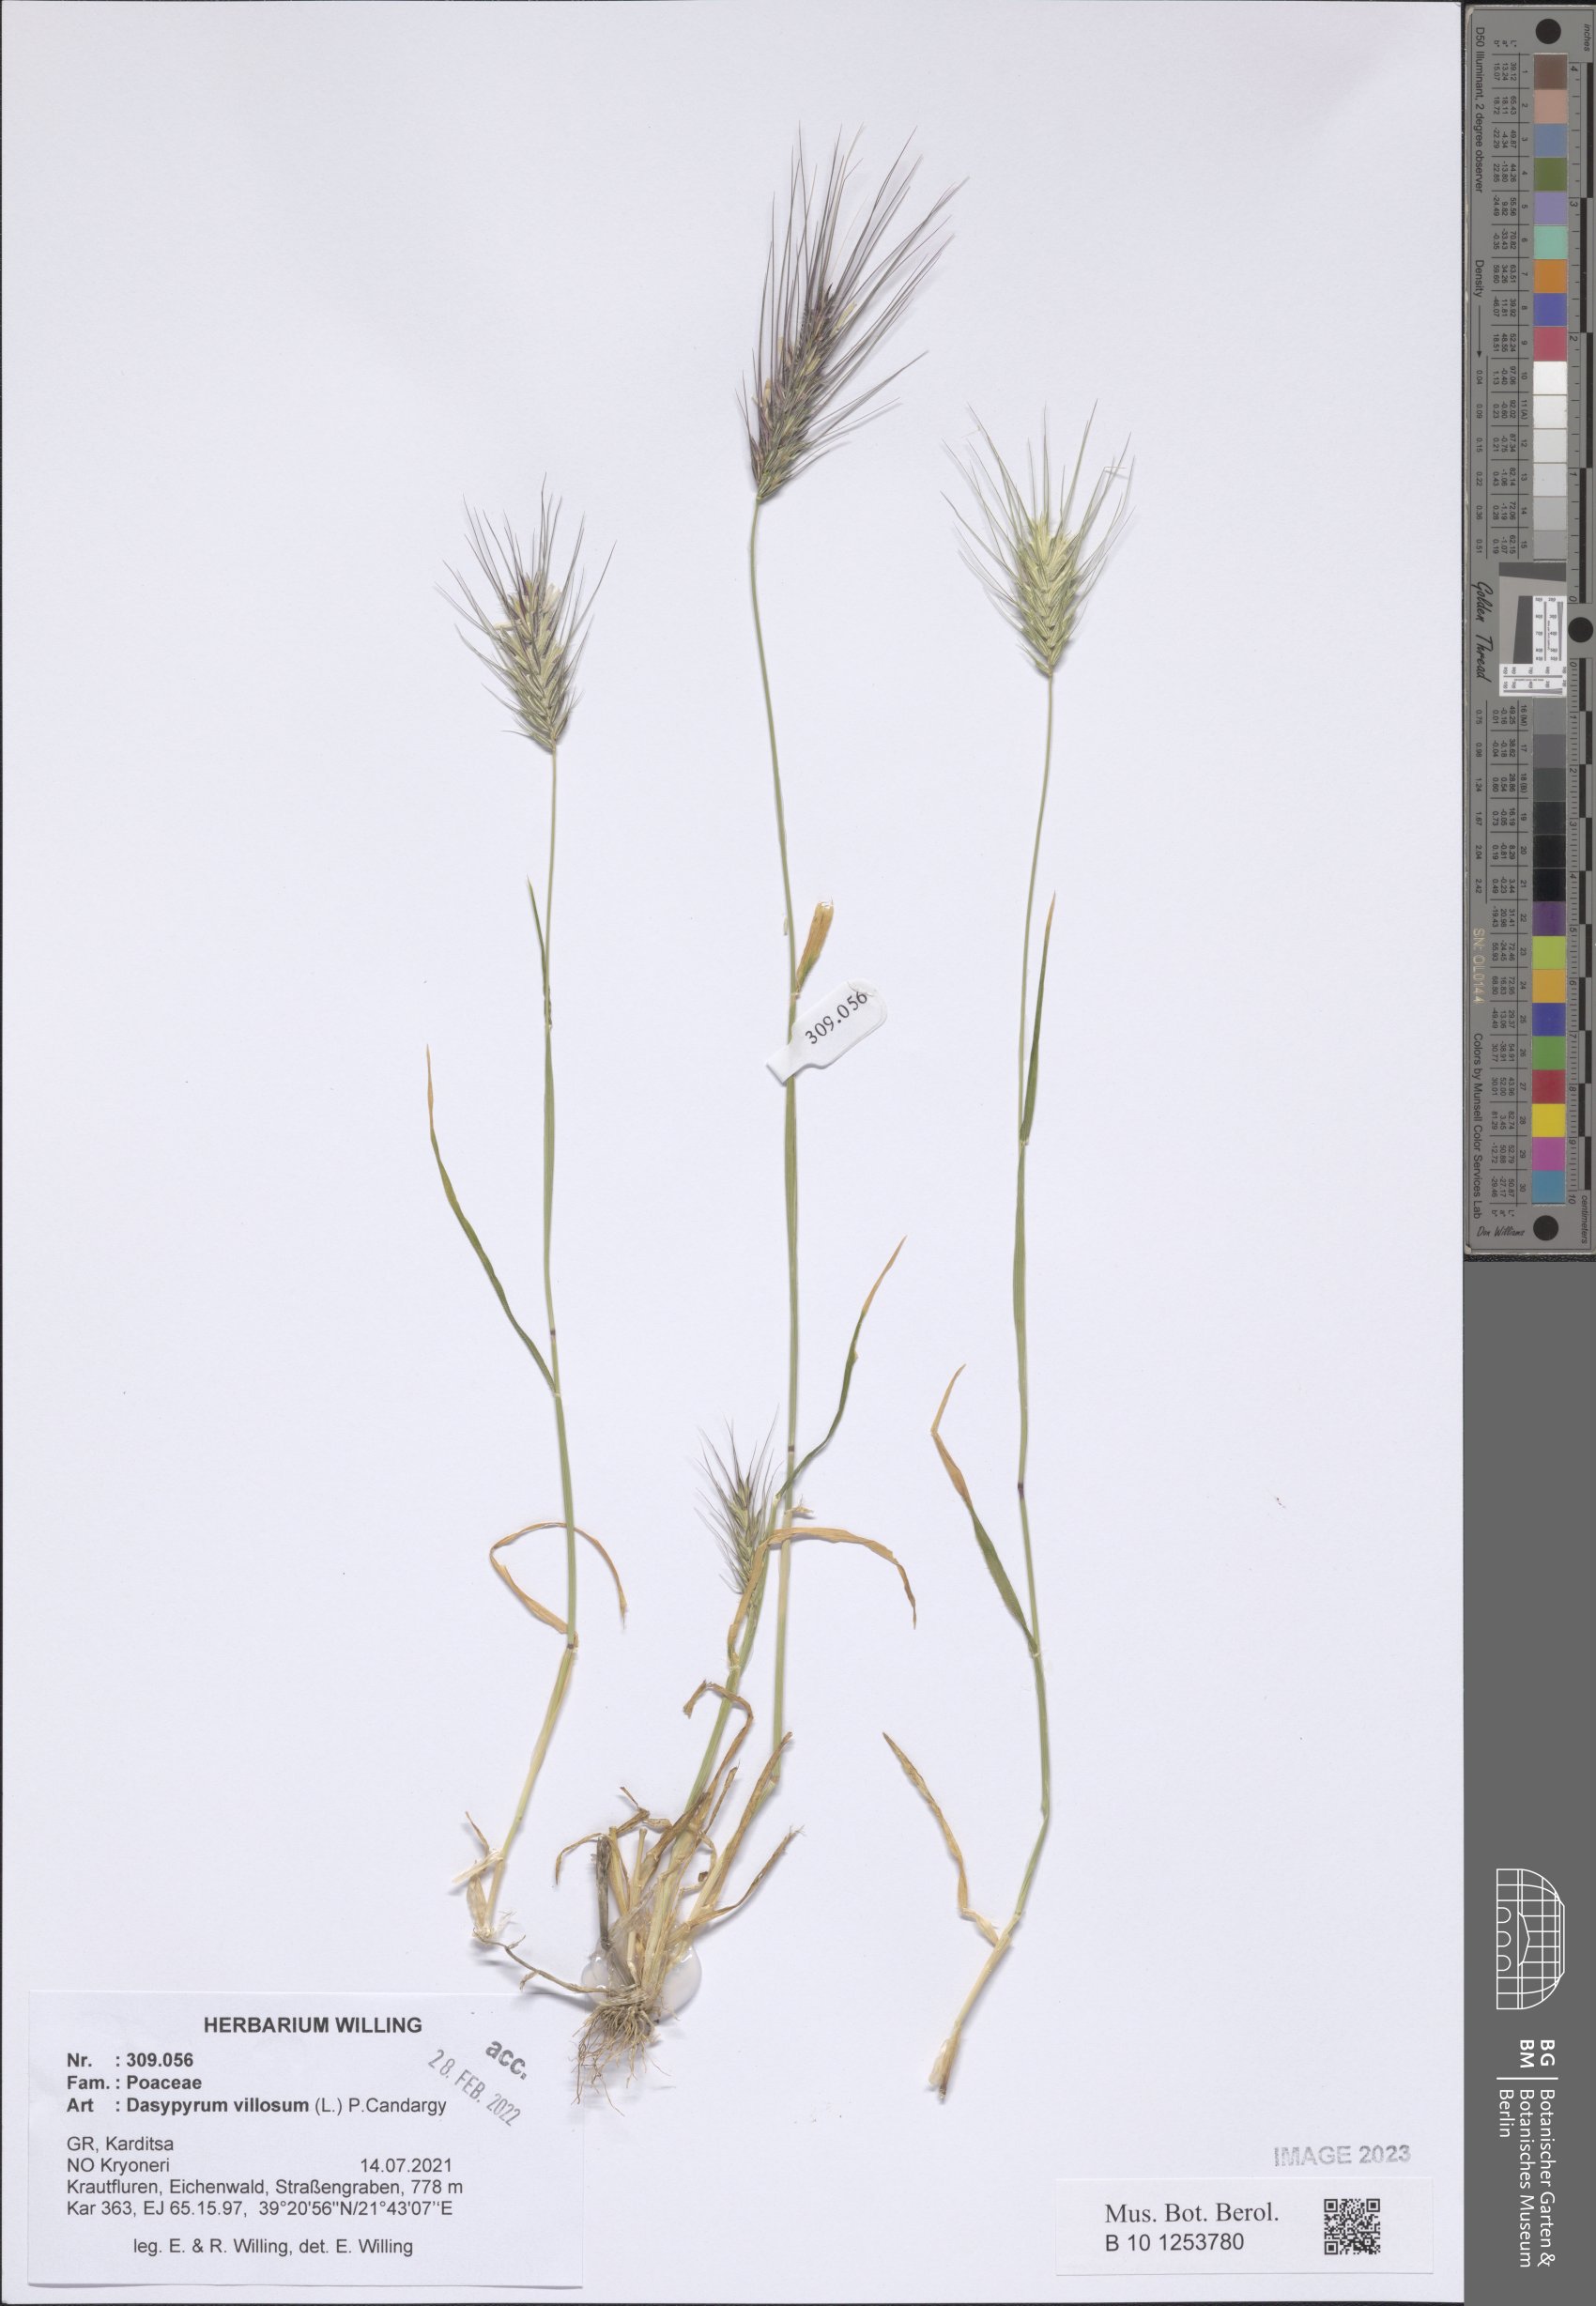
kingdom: Plantae
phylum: Tracheophyta
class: Liliopsida
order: Poales
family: Poaceae
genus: Dasypyrum
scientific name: Dasypyrum villosum
